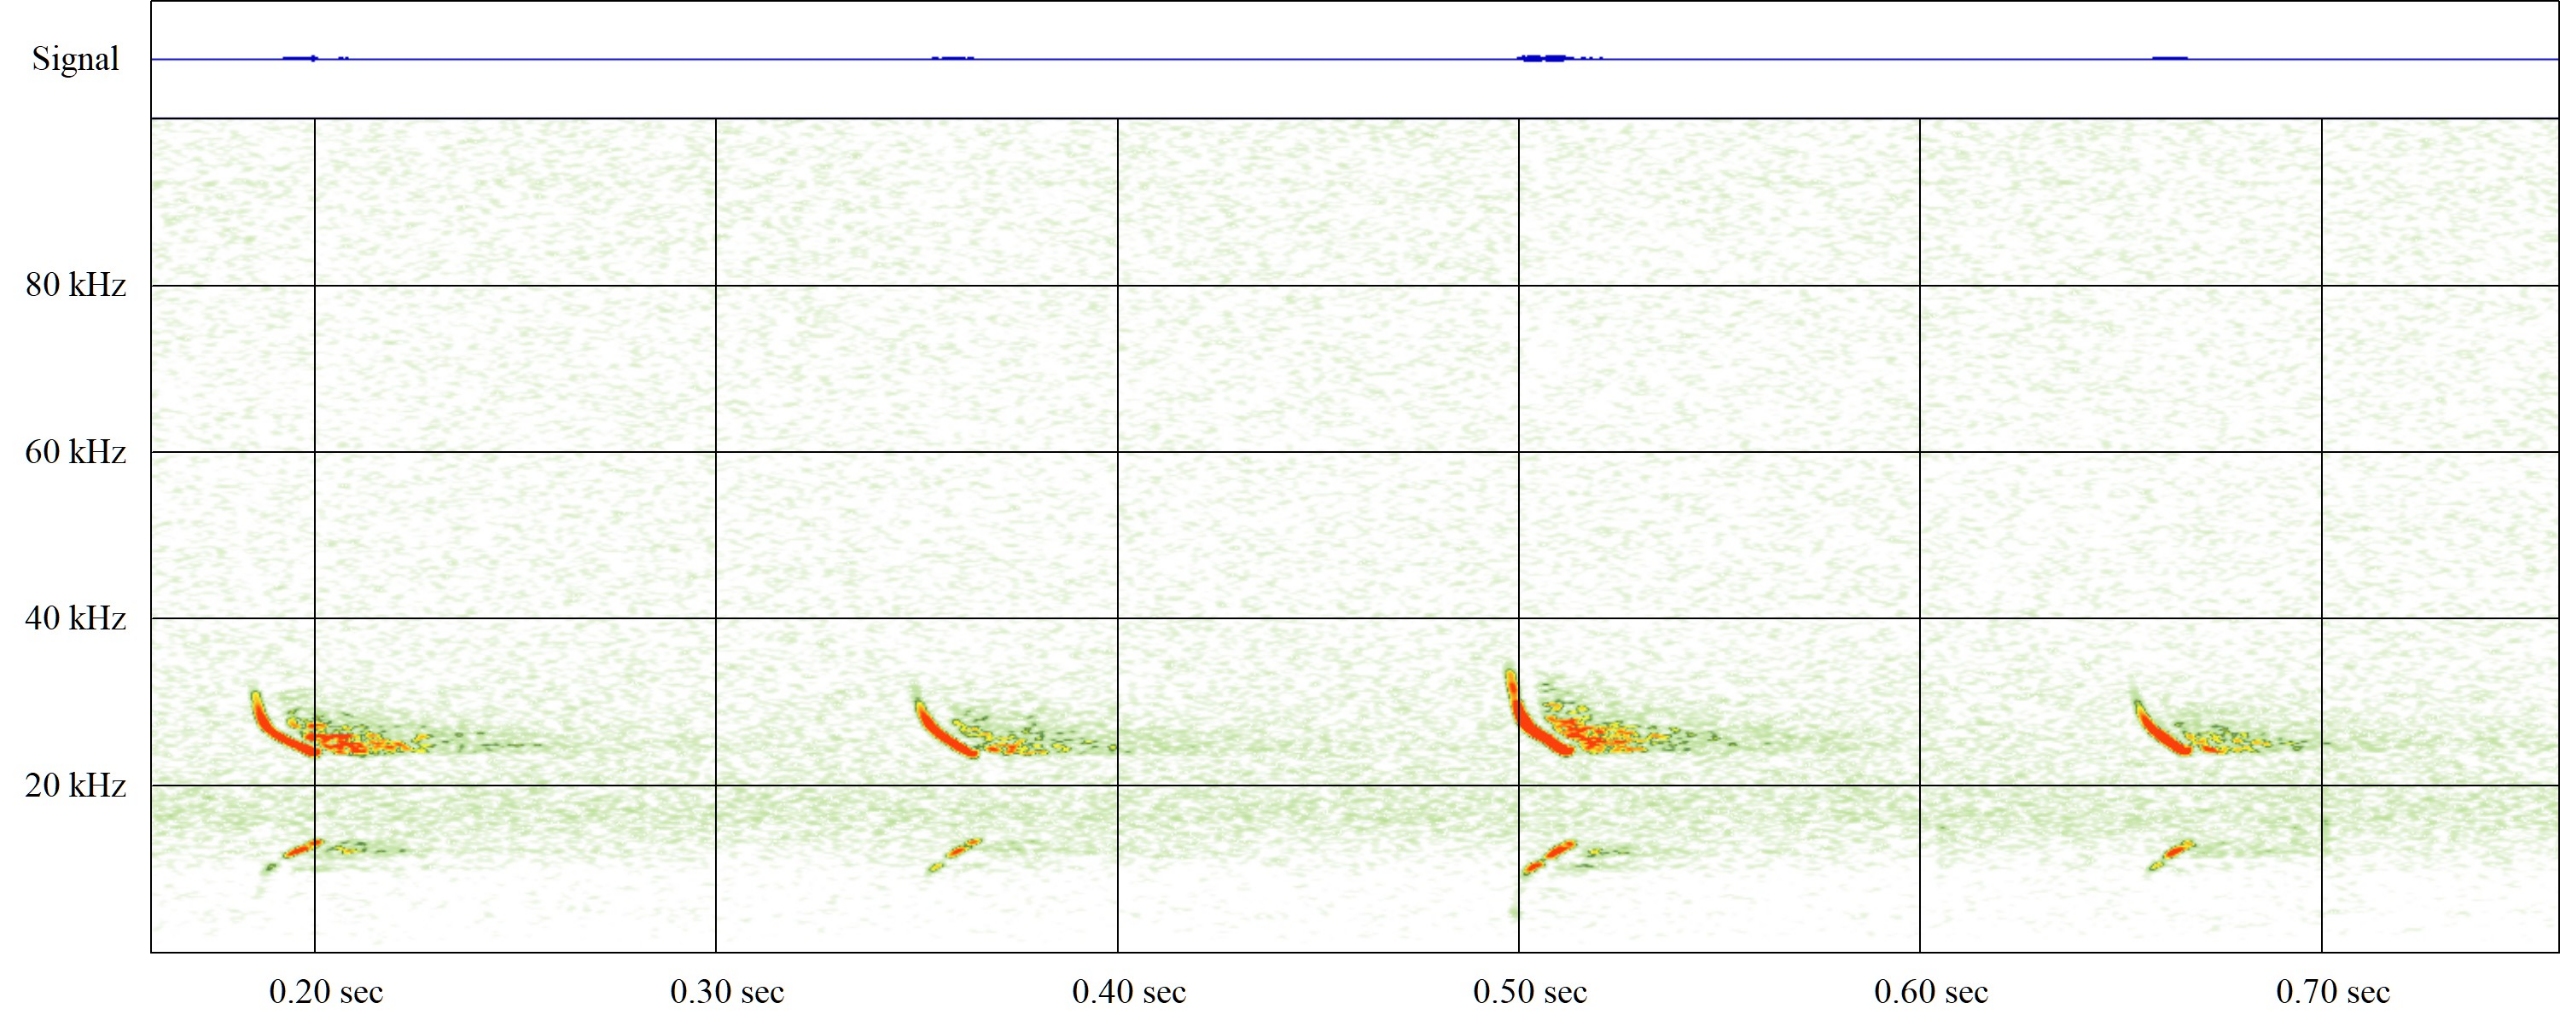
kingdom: Animalia
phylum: Chordata
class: Mammalia
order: Chiroptera
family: Vespertilionidae
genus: Vespertilio
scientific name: Vespertilio murinus
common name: Skimmelflagermus
